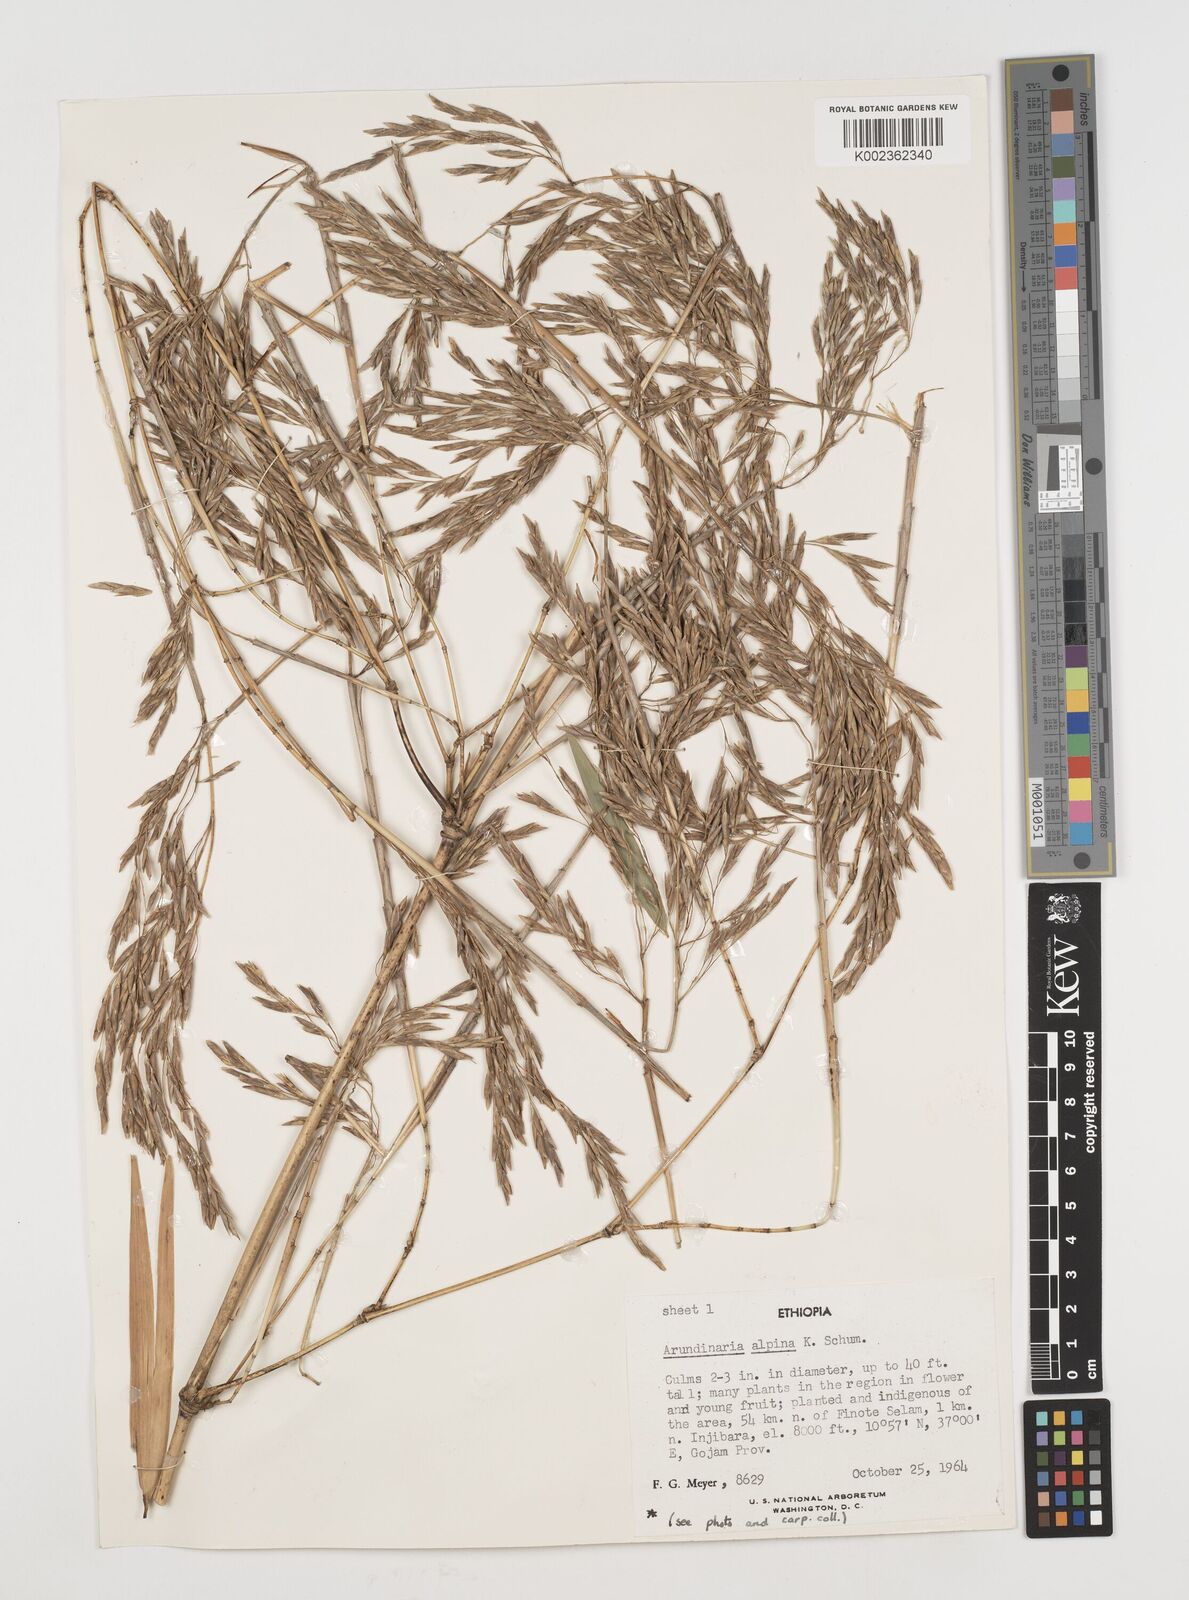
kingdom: Plantae
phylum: Tracheophyta
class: Liliopsida
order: Poales
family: Poaceae
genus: Oldeania
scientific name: Oldeania alpina
